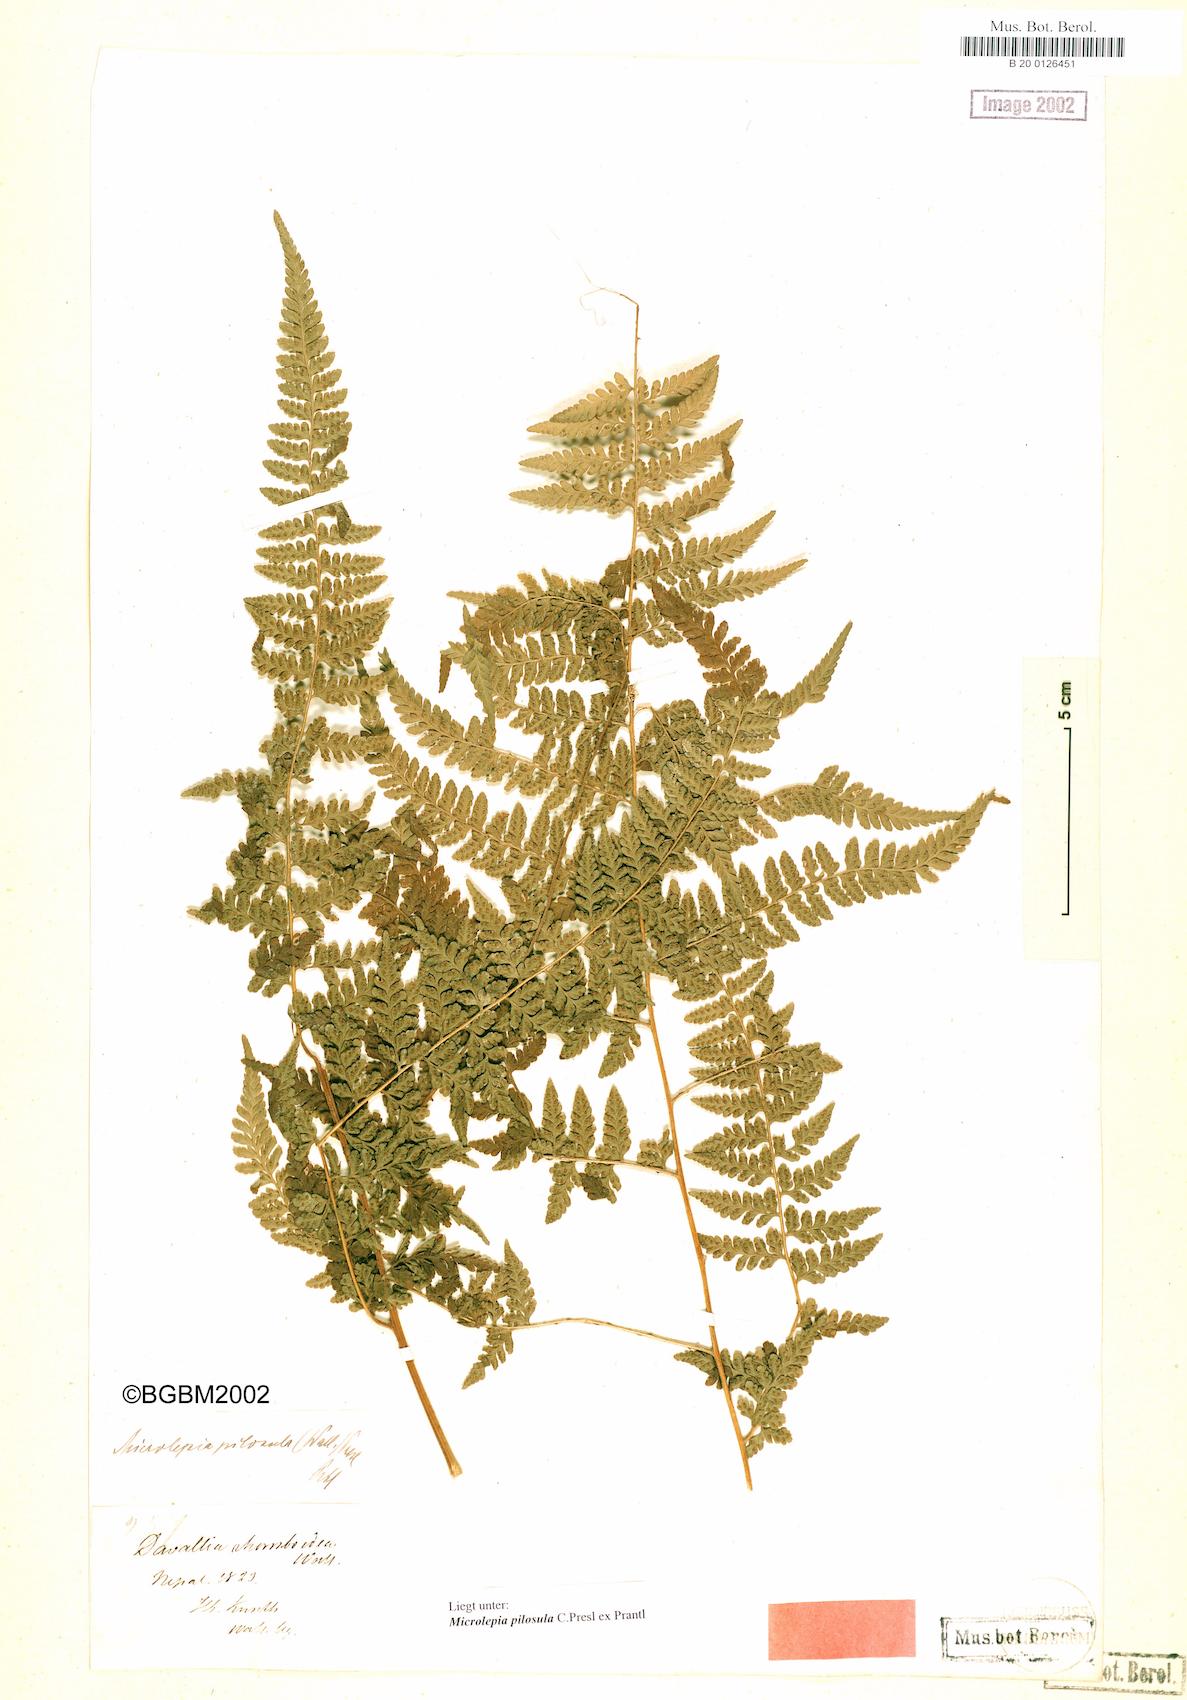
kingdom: Plantae
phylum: Tracheophyta
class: Polypodiopsida
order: Polypodiales
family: Dennstaedtiaceae
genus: Microlepia
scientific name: Microlepia speluncae
